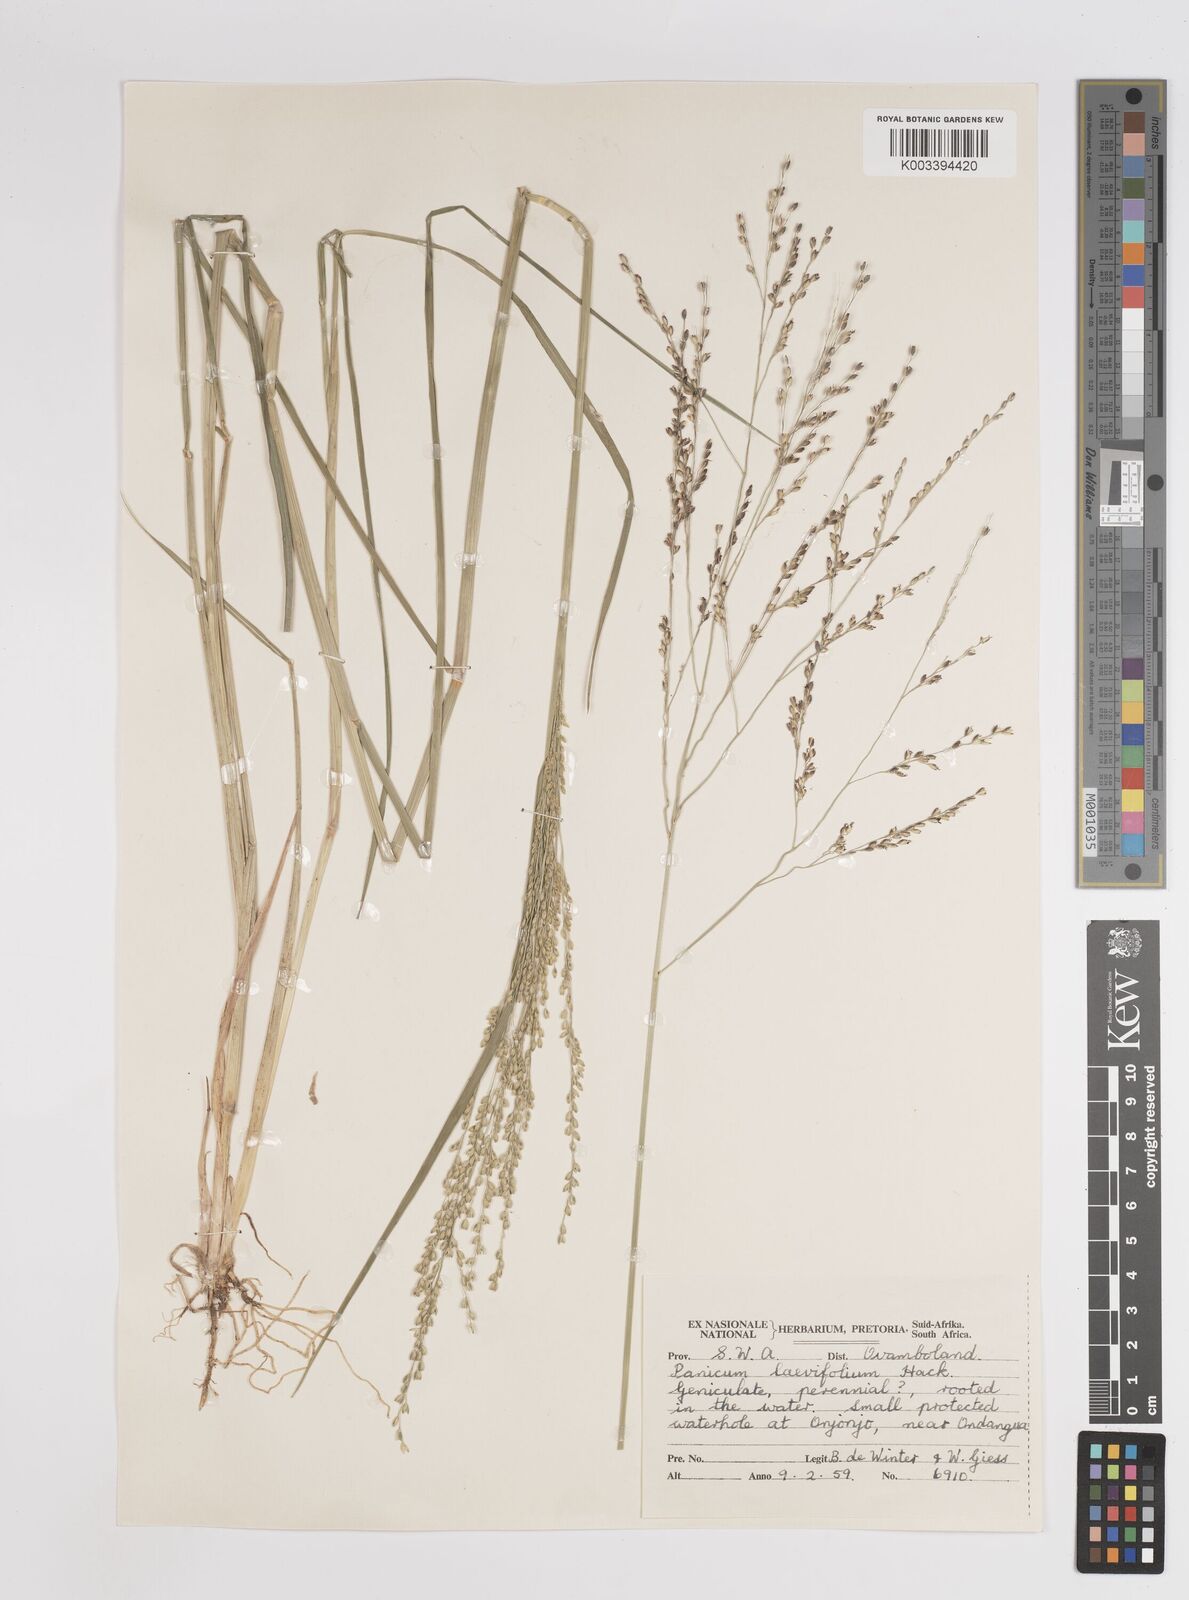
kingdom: Plantae
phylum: Tracheophyta
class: Liliopsida
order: Poales
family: Poaceae
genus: Panicum
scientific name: Panicum
